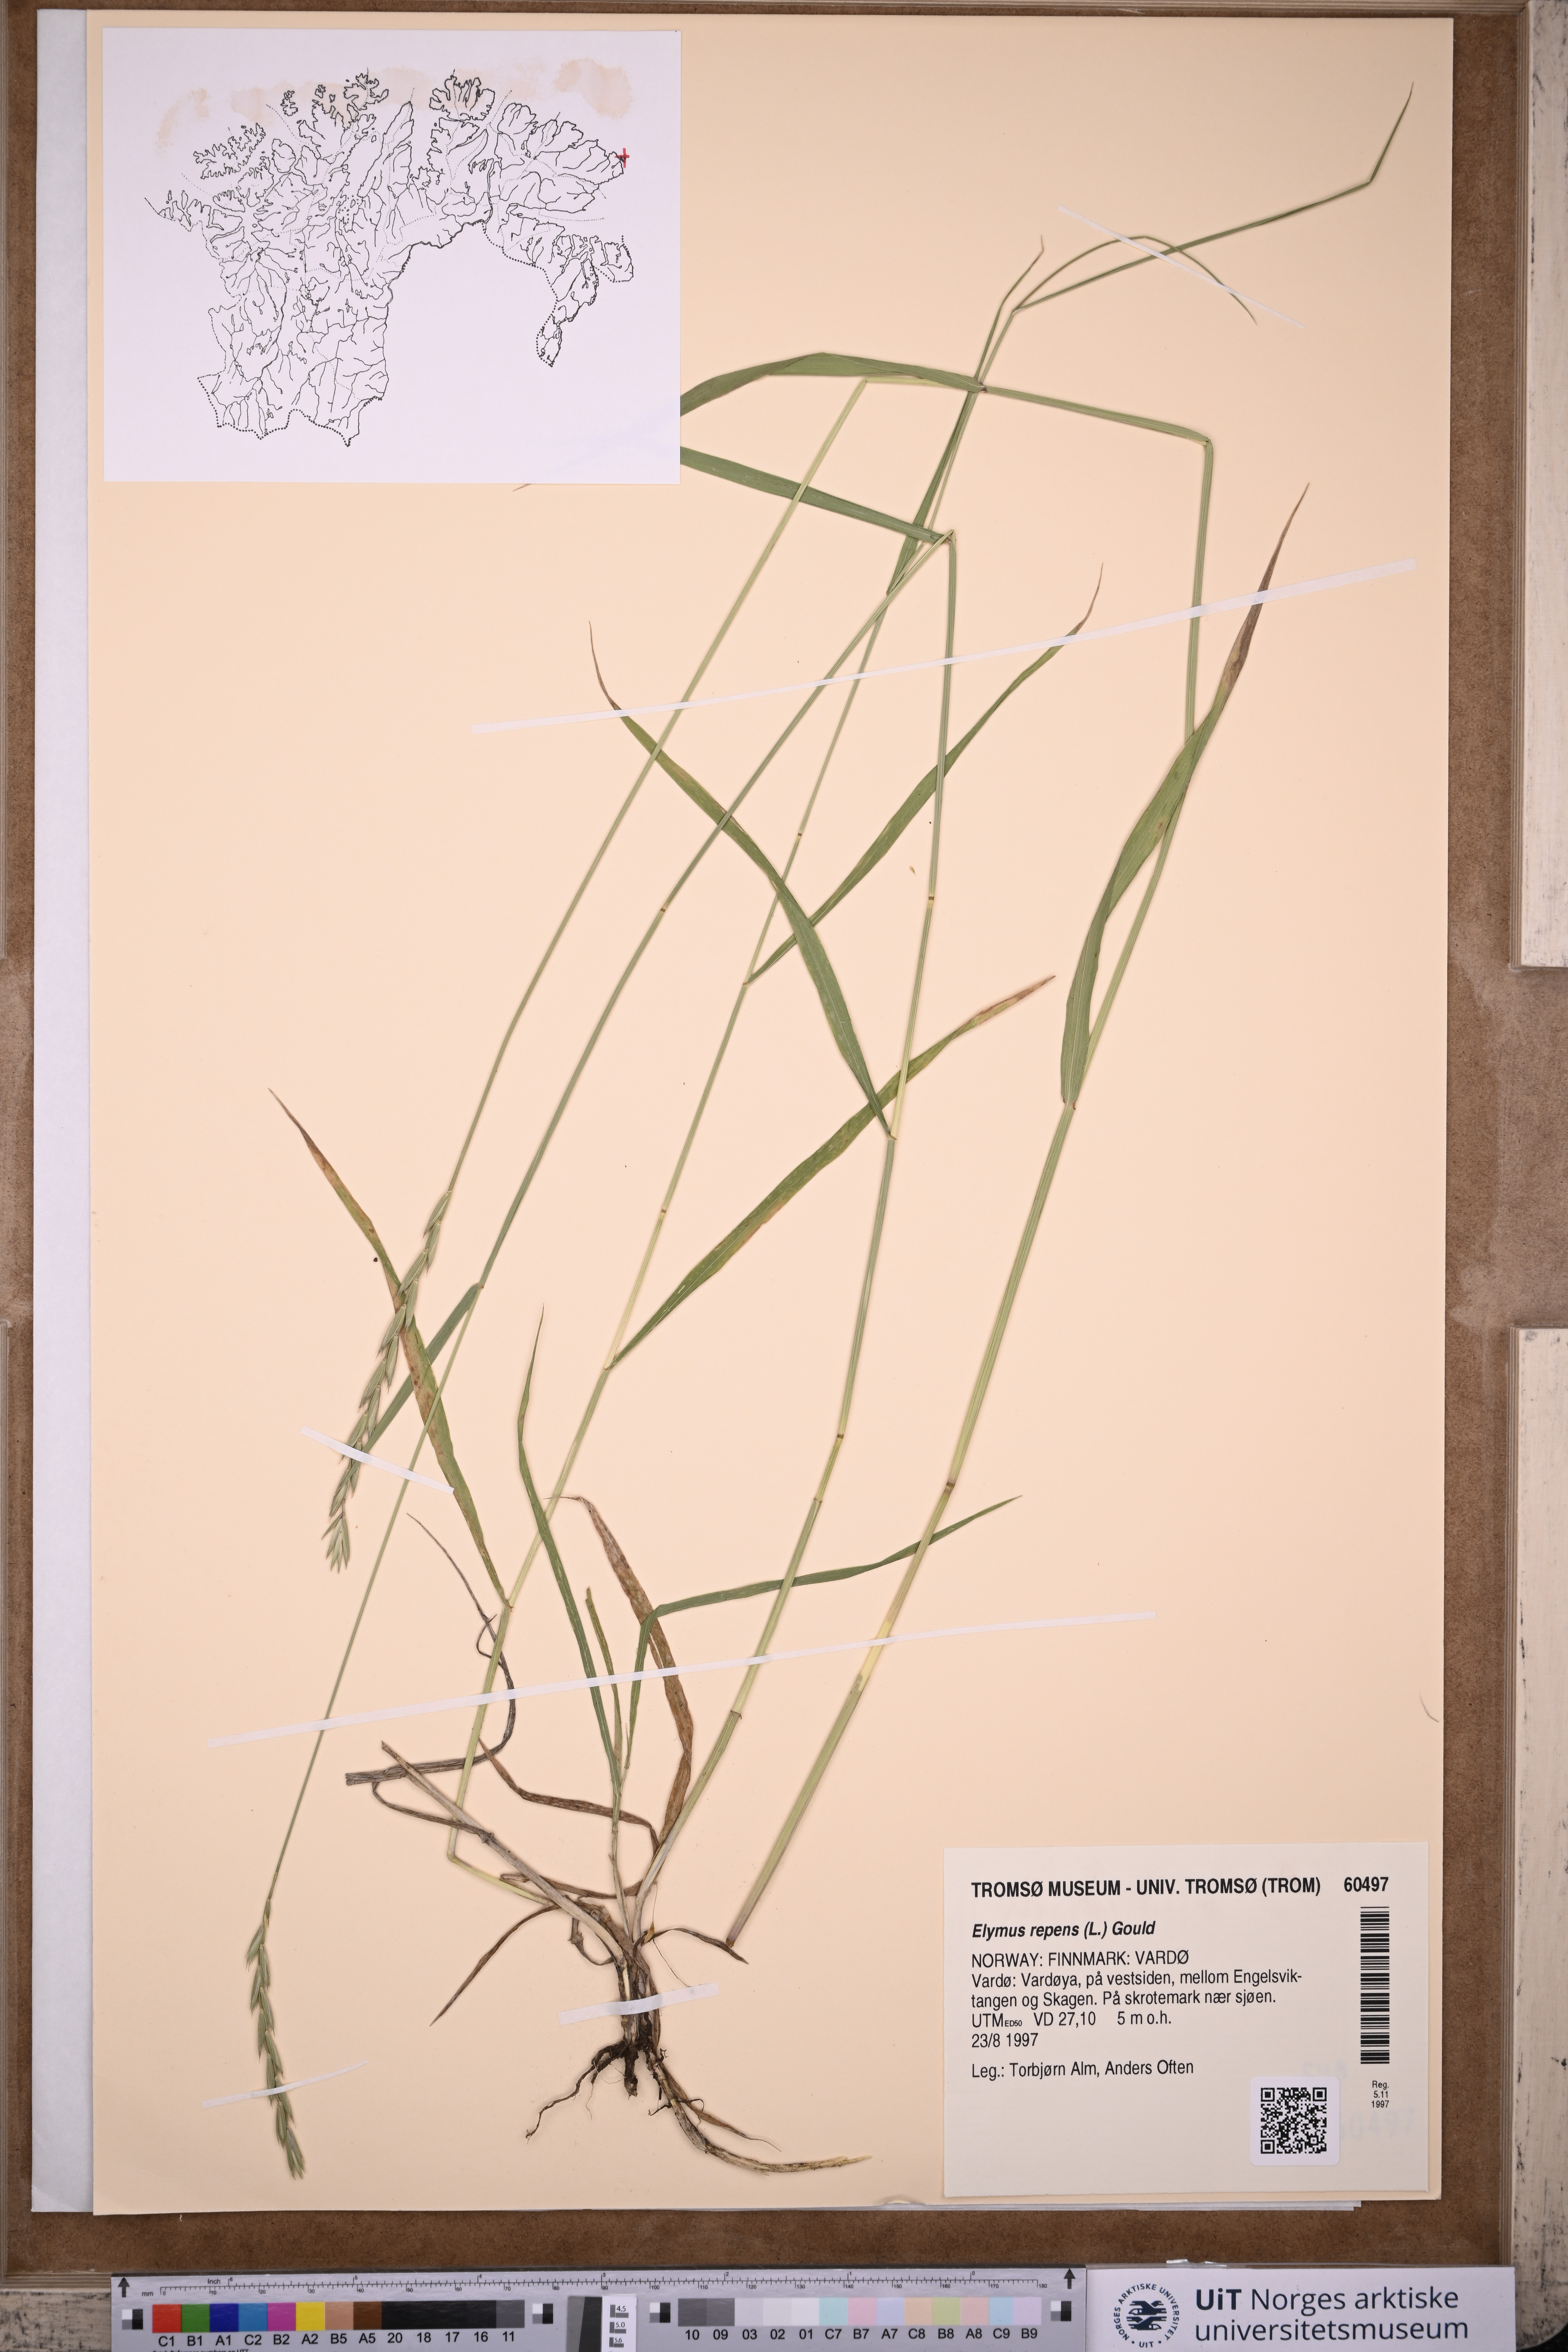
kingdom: Plantae
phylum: Tracheophyta
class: Liliopsida
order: Poales
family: Poaceae
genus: Elymus
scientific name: Elymus repens
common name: Quackgrass
